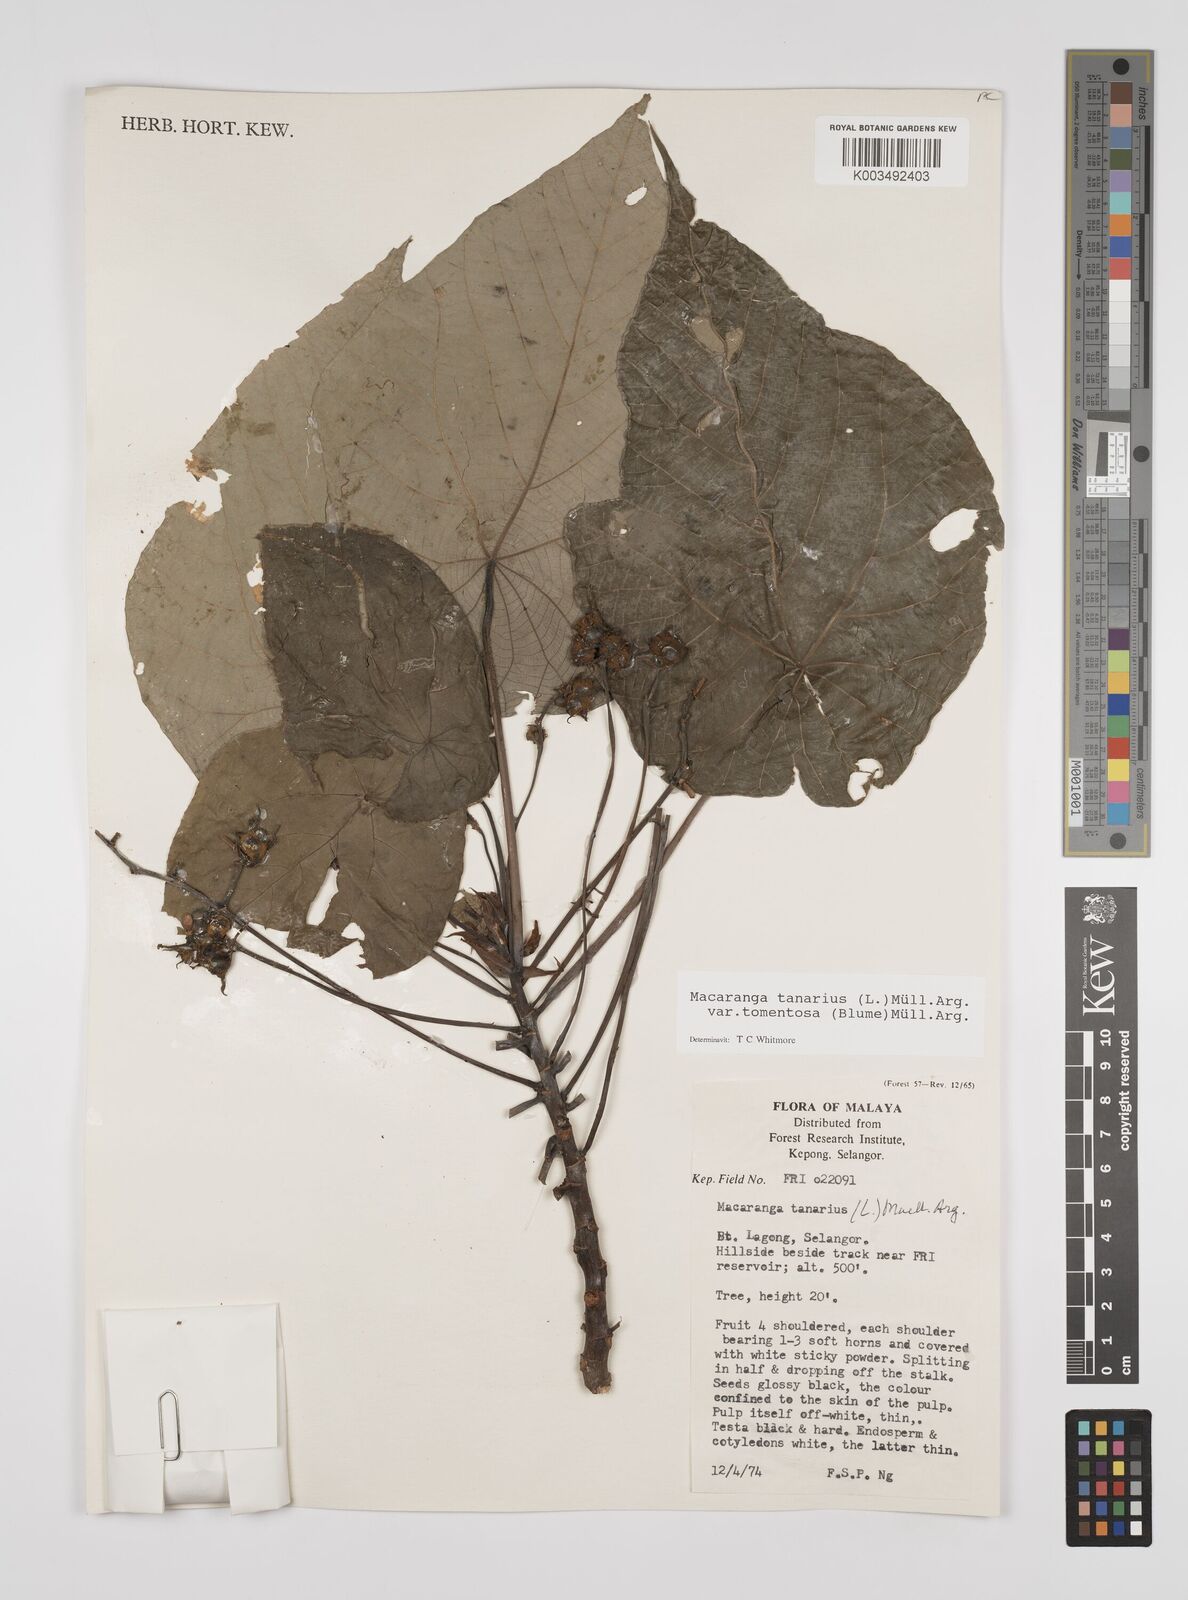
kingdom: Plantae
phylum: Tracheophyta
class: Magnoliopsida
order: Malpighiales
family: Euphorbiaceae
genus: Macaranga
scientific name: Macaranga tanarius
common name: Parasol leaf tree
